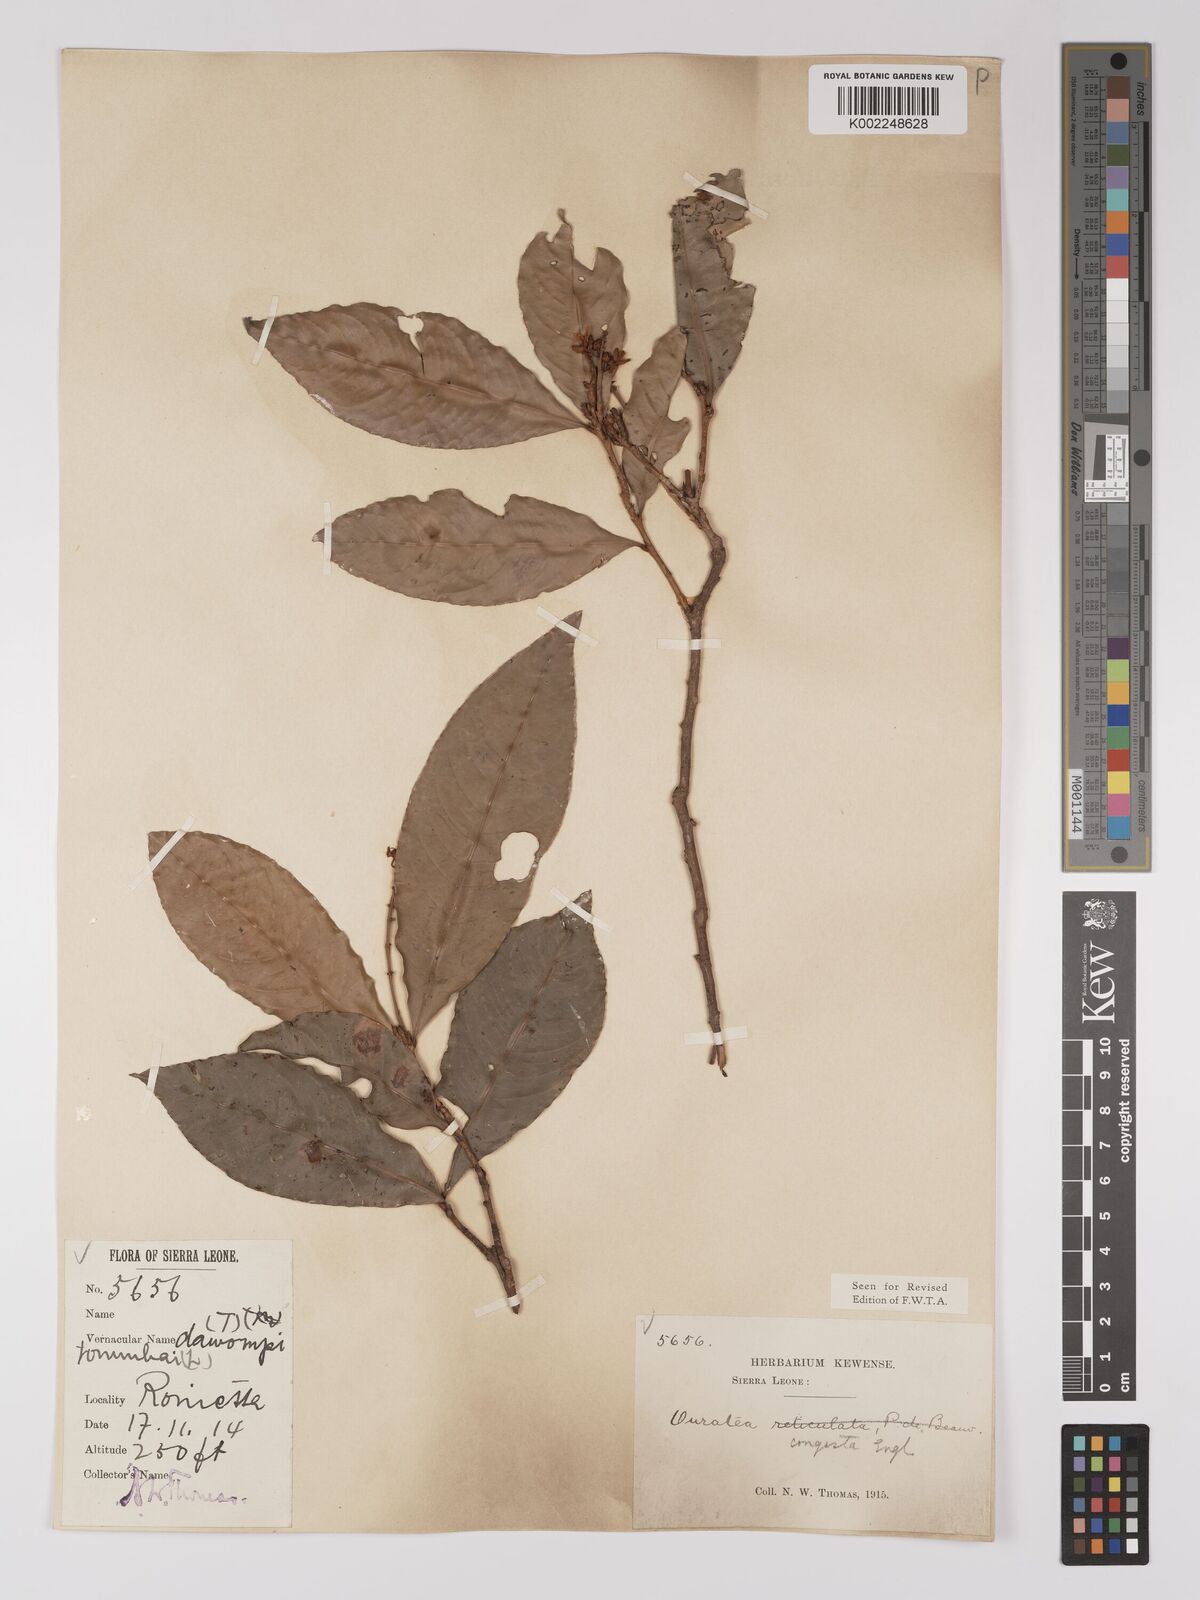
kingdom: Plantae
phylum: Tracheophyta
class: Magnoliopsida
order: Malpighiales
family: Ochnaceae
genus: Campylospermum
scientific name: Campylospermum congestum
